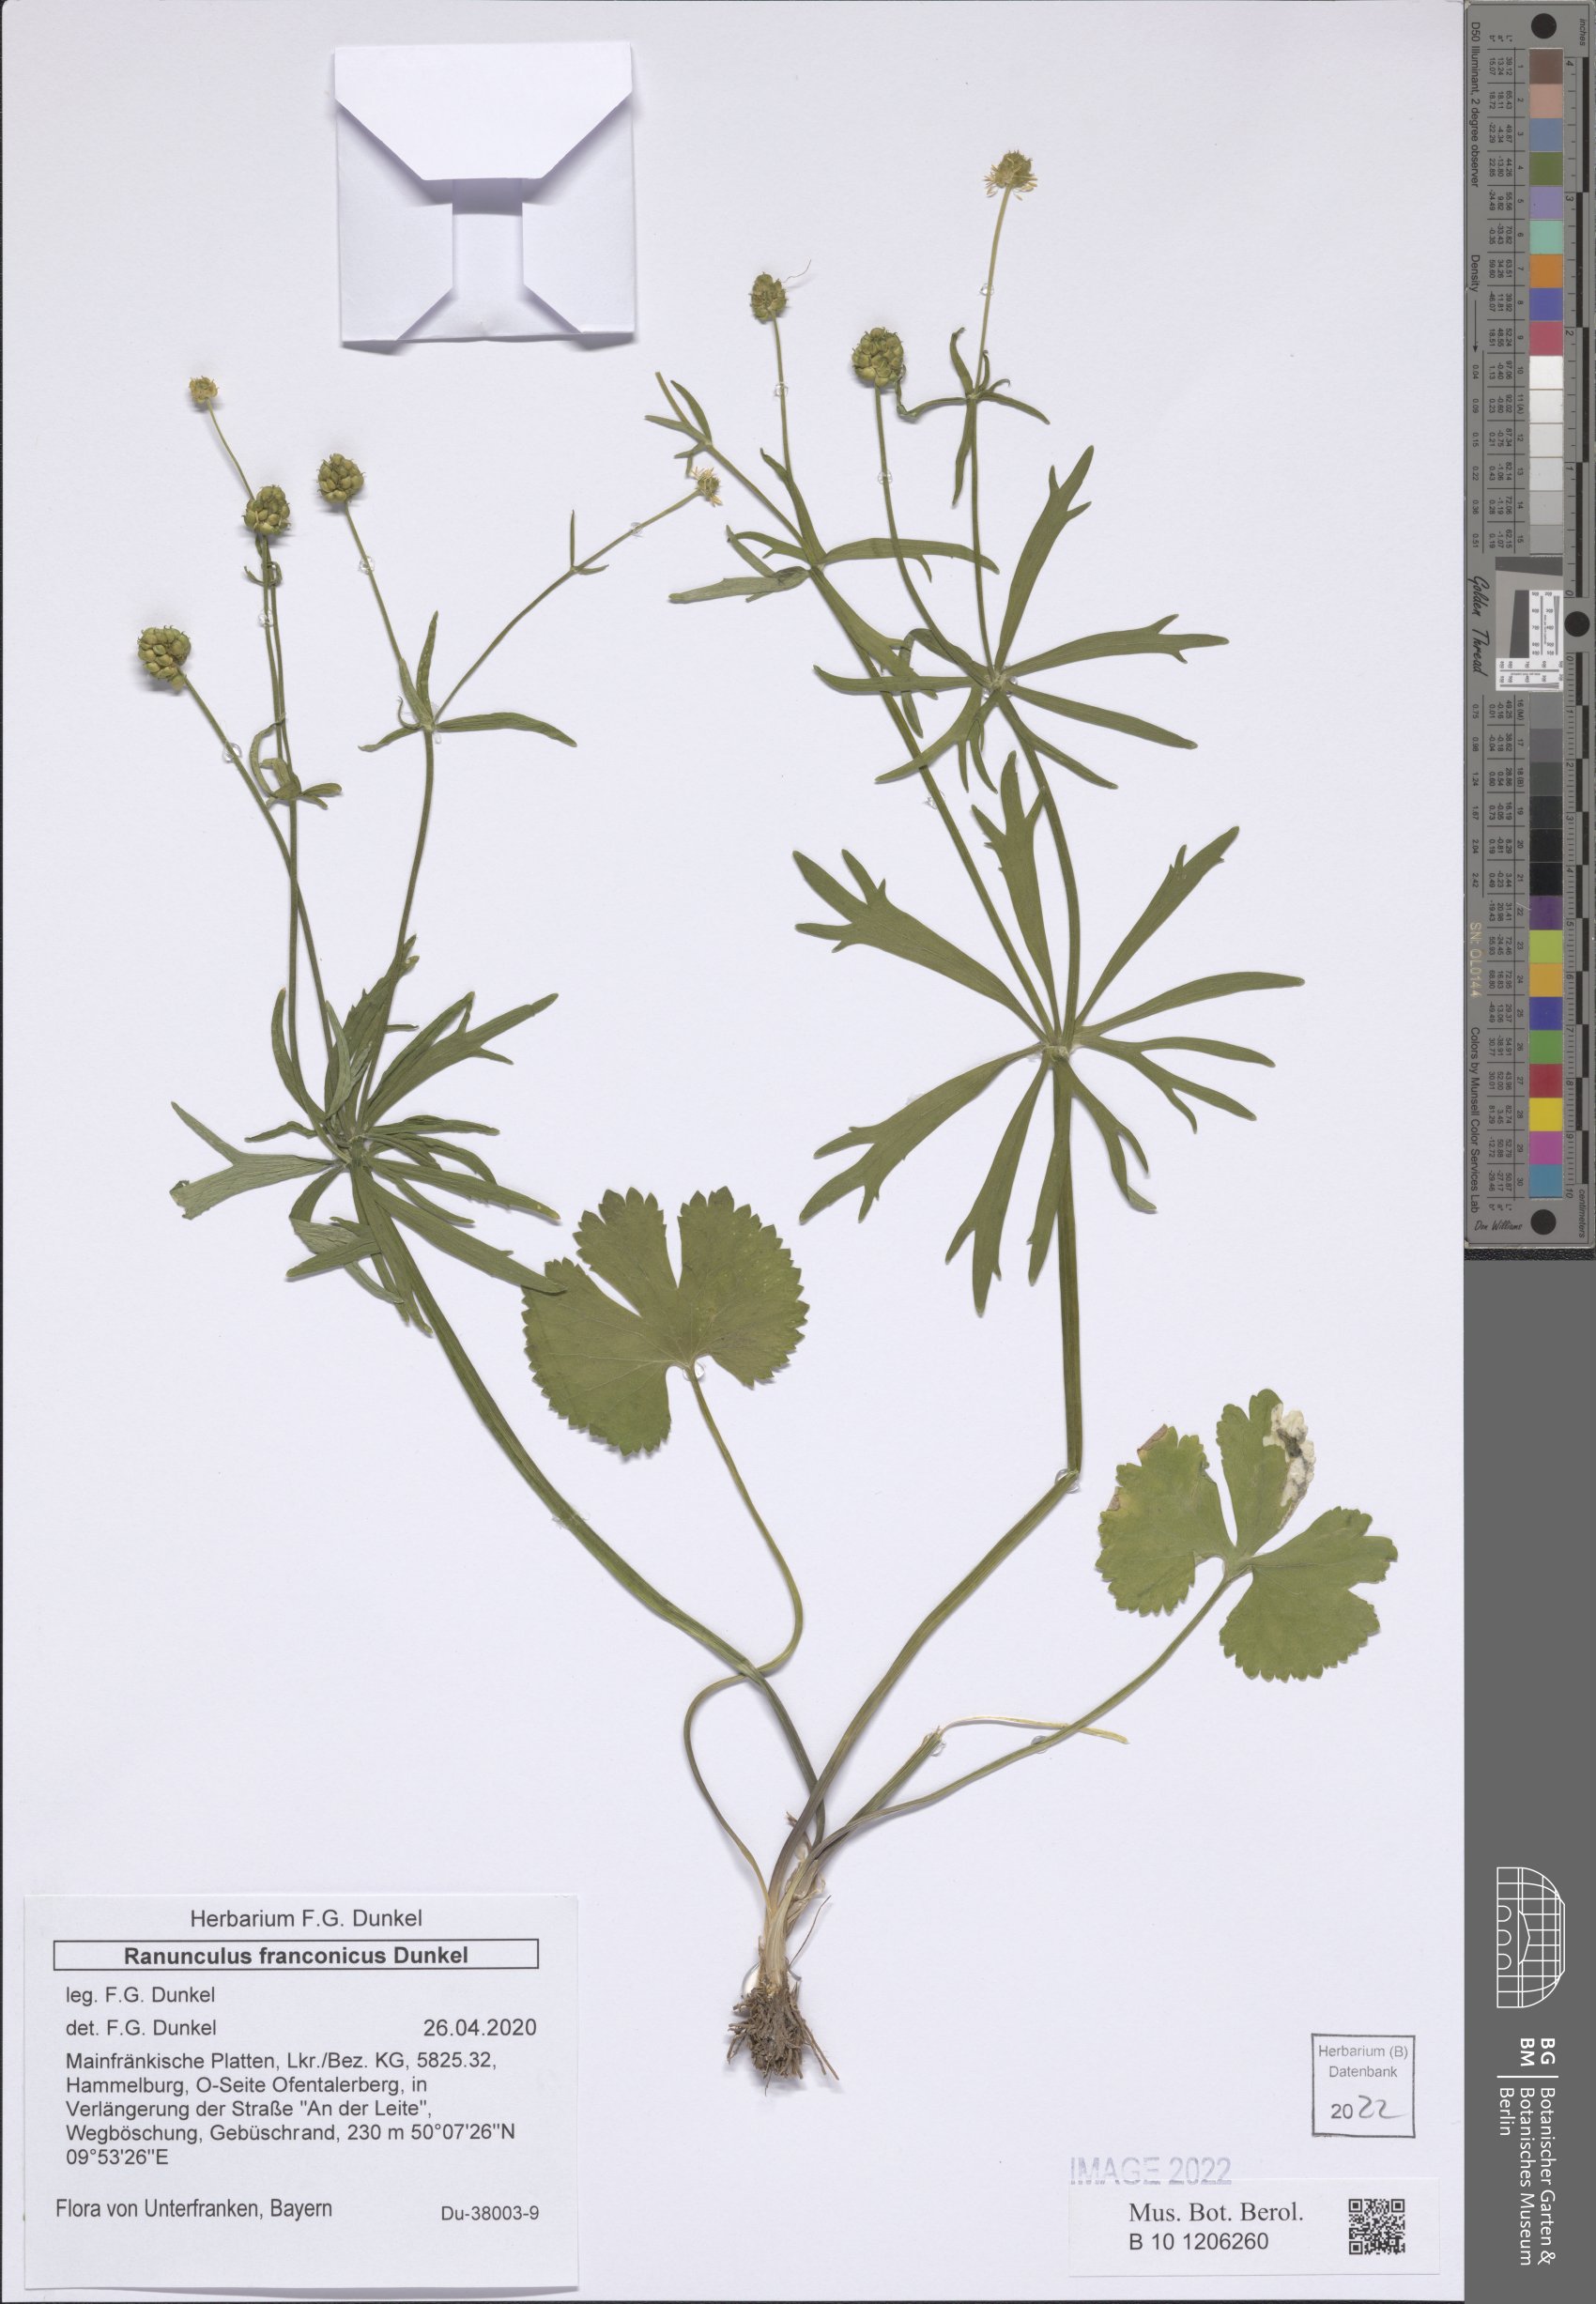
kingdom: Plantae
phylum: Tracheophyta
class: Magnoliopsida
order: Ranunculales
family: Ranunculaceae
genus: Ranunculus
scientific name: Ranunculus franconicus
